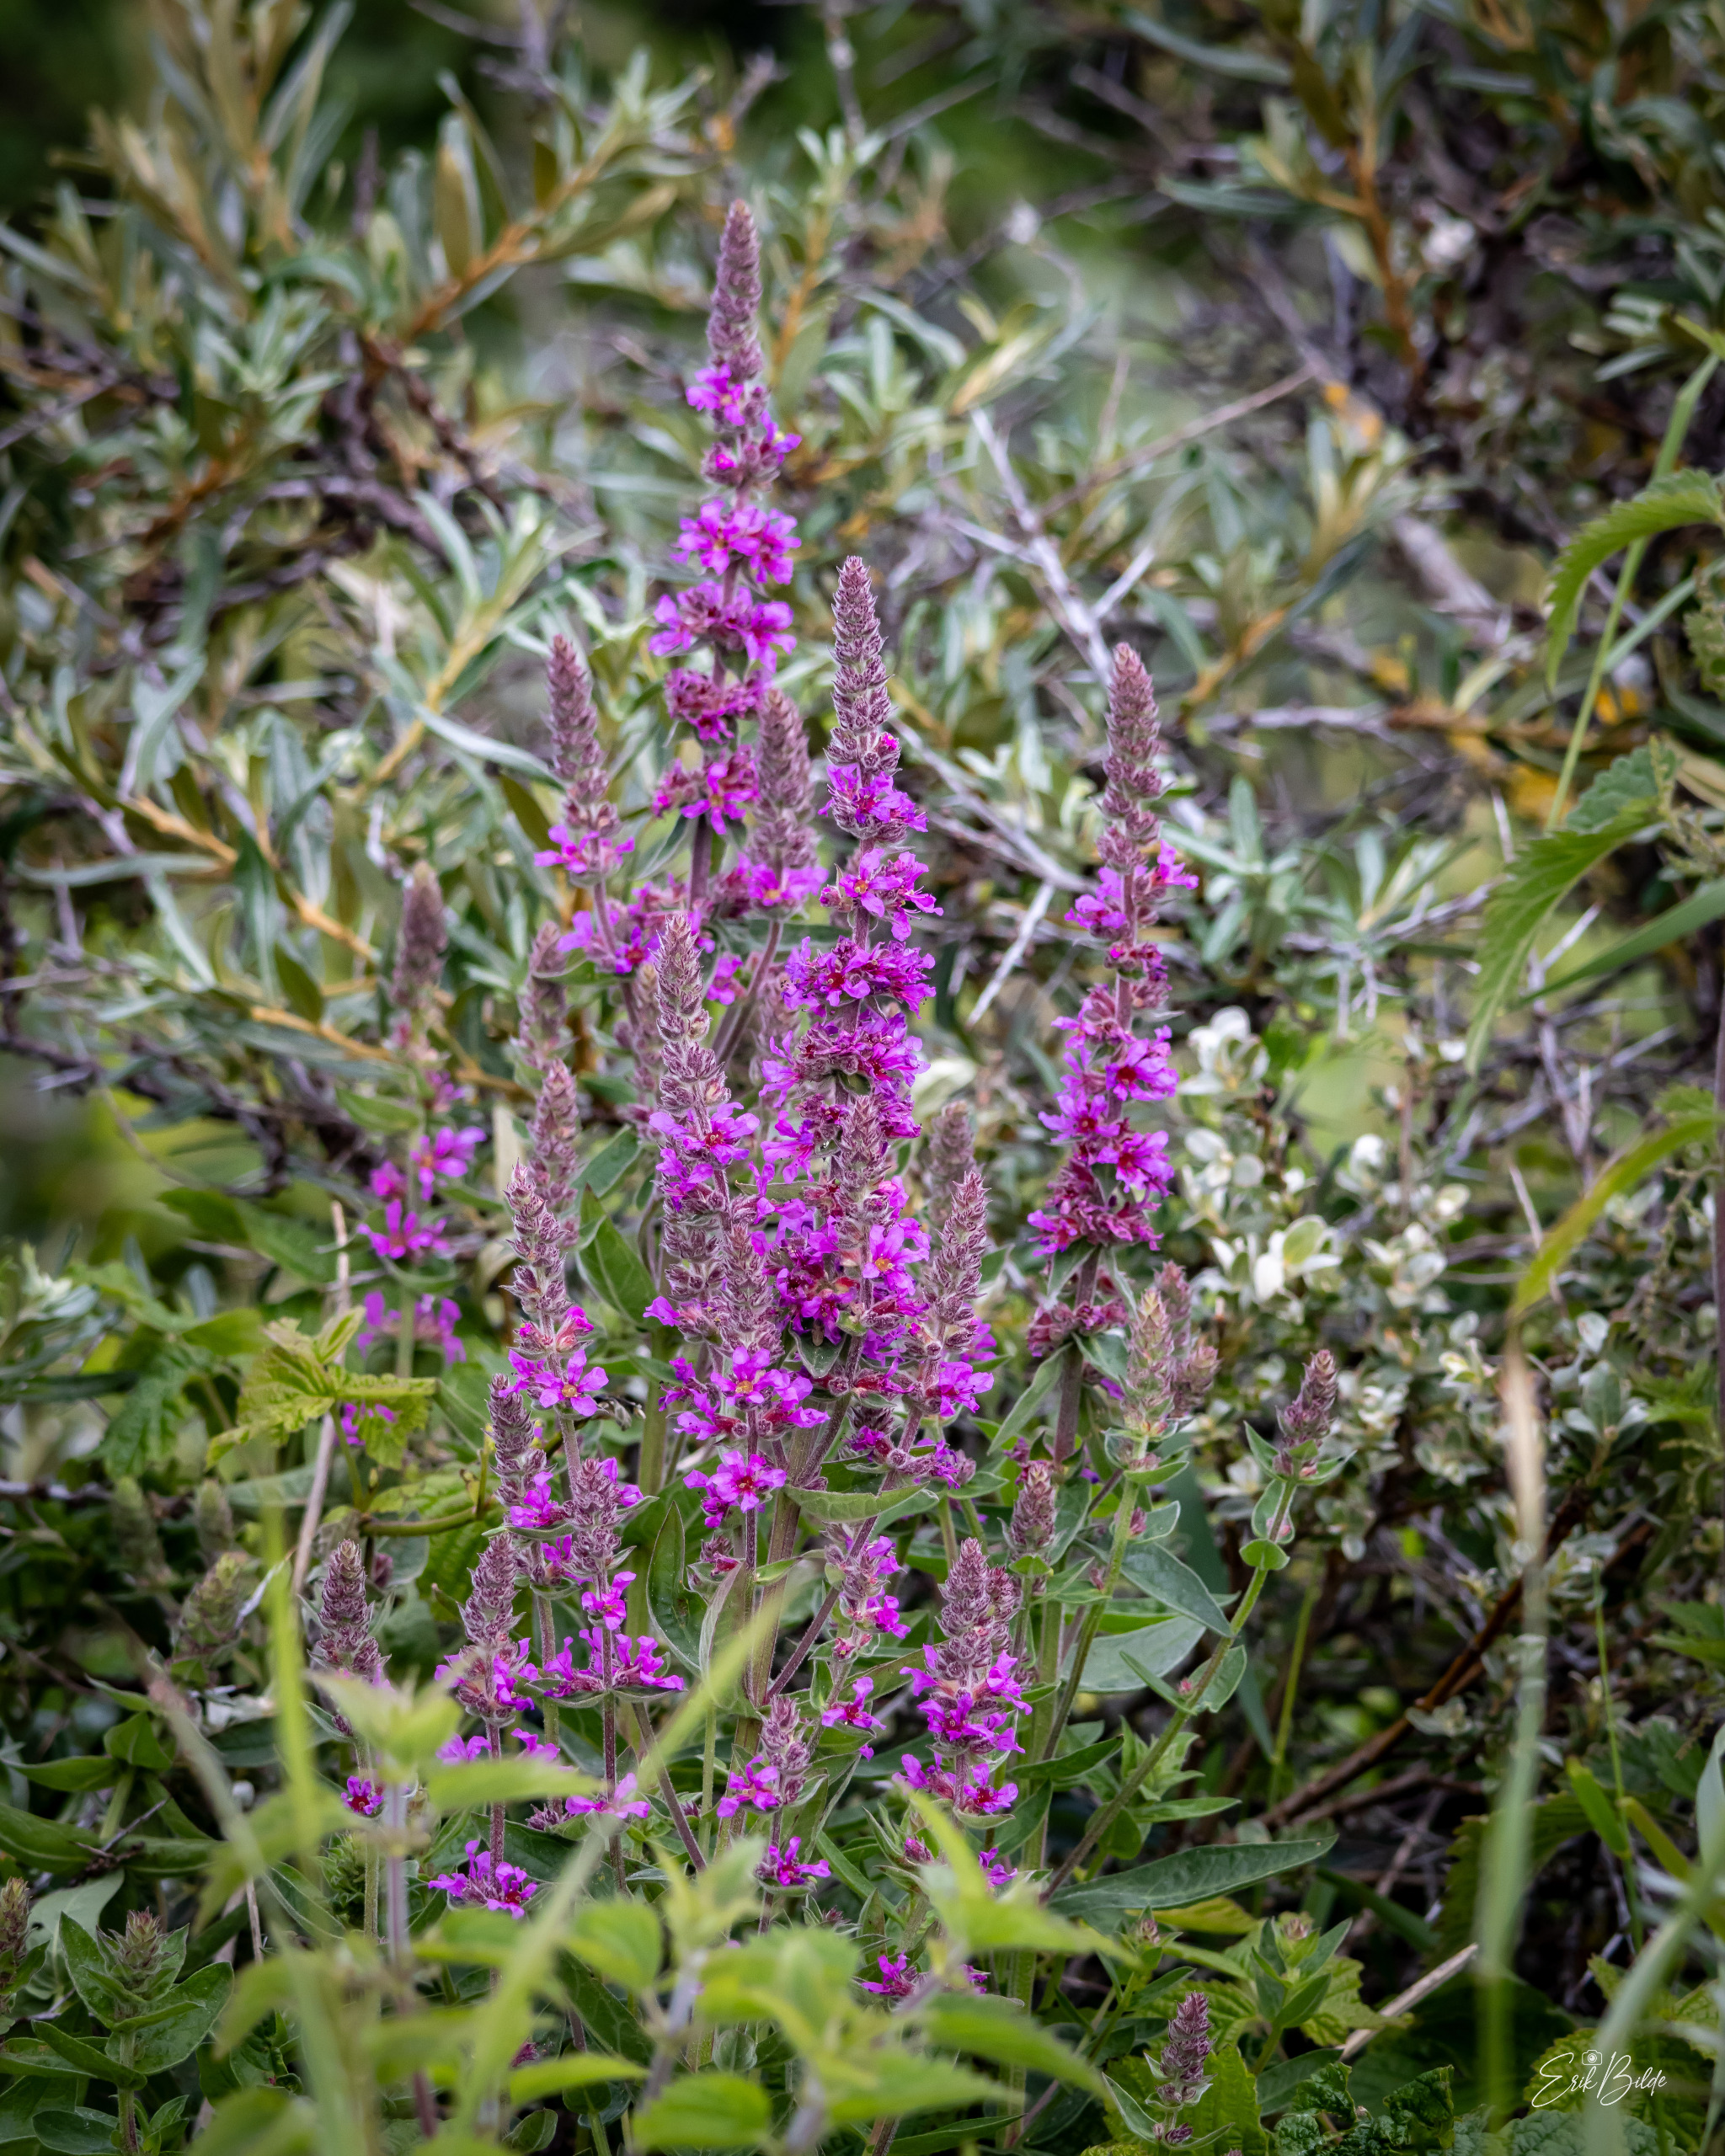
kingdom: Plantae
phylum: Tracheophyta
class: Magnoliopsida
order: Myrtales
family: Lythraceae
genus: Lythrum
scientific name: Lythrum salicaria
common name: Kattehale
